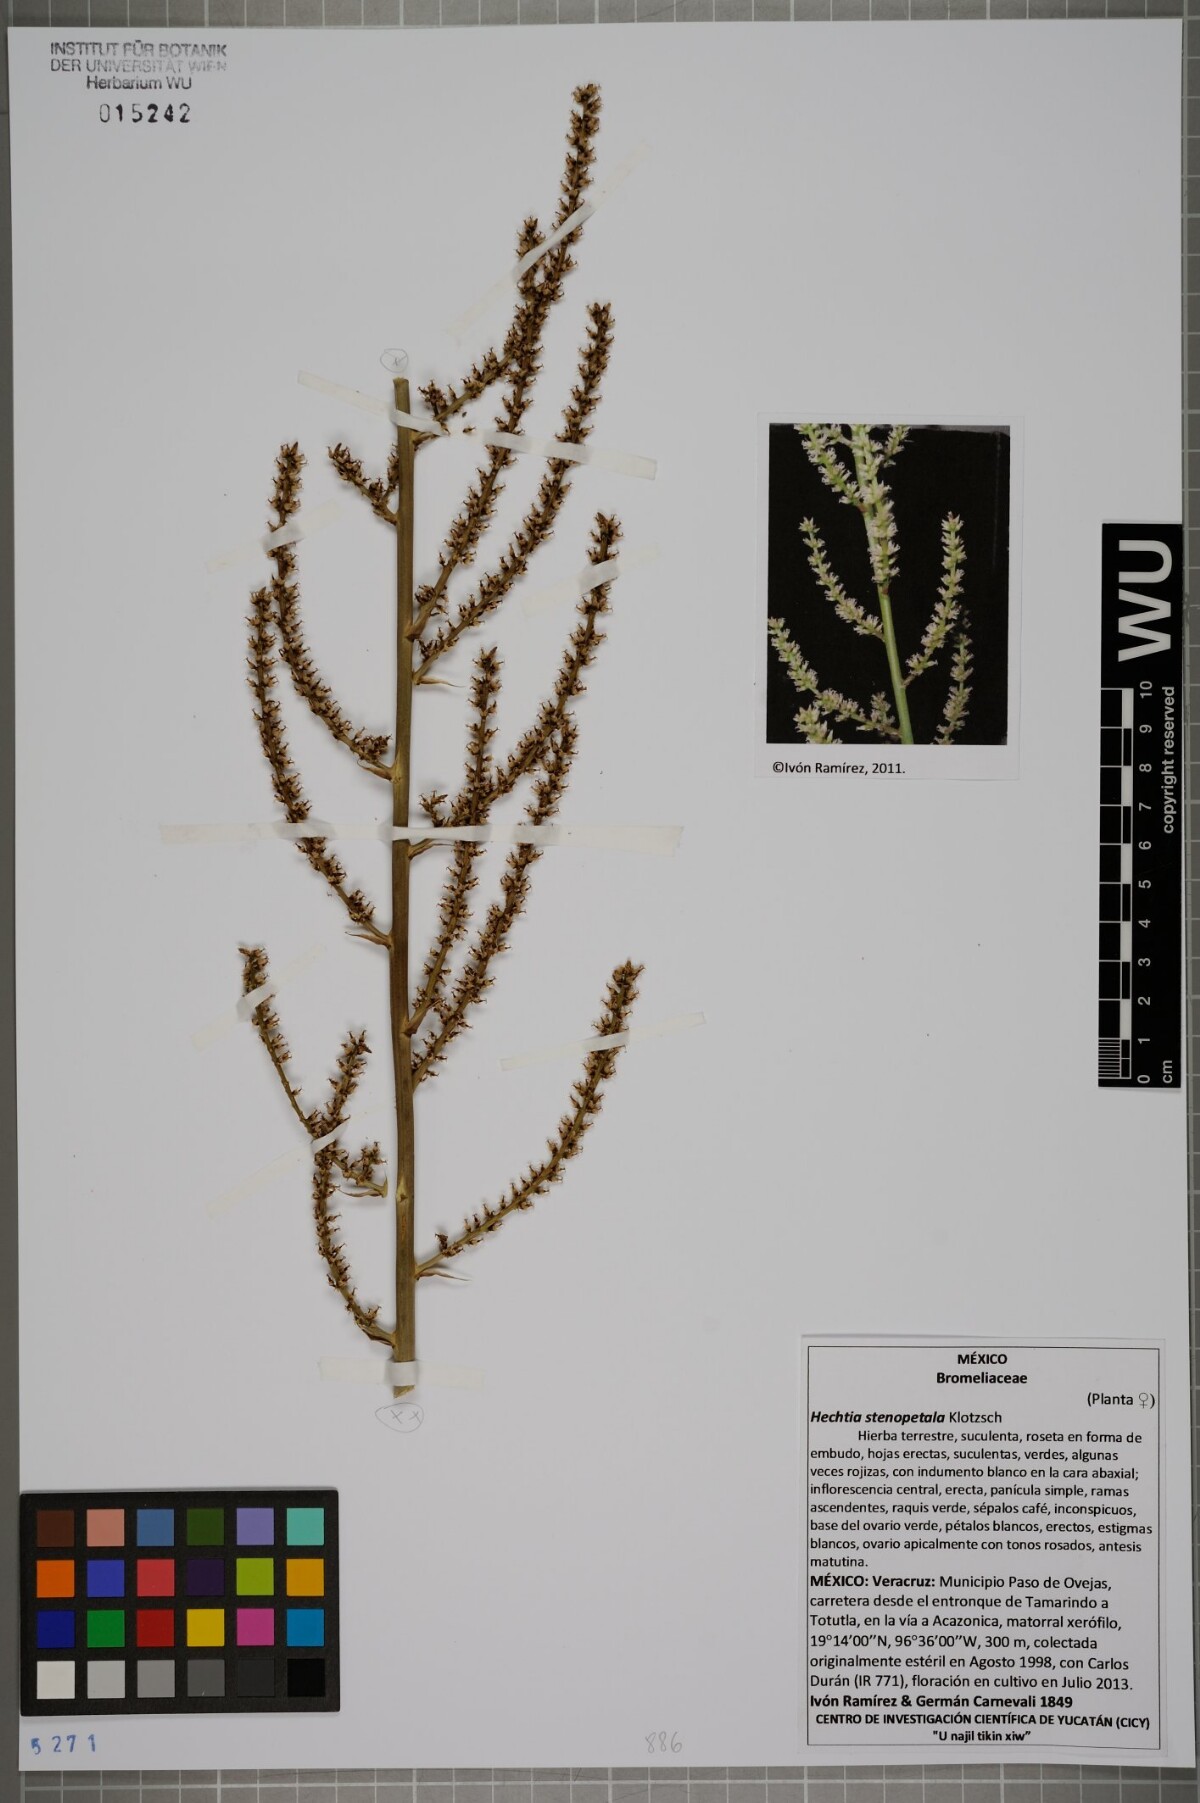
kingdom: Plantae
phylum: Tracheophyta
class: Liliopsida
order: Poales
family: Bromeliaceae
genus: Hechtia
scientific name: Hechtia stenopetala
